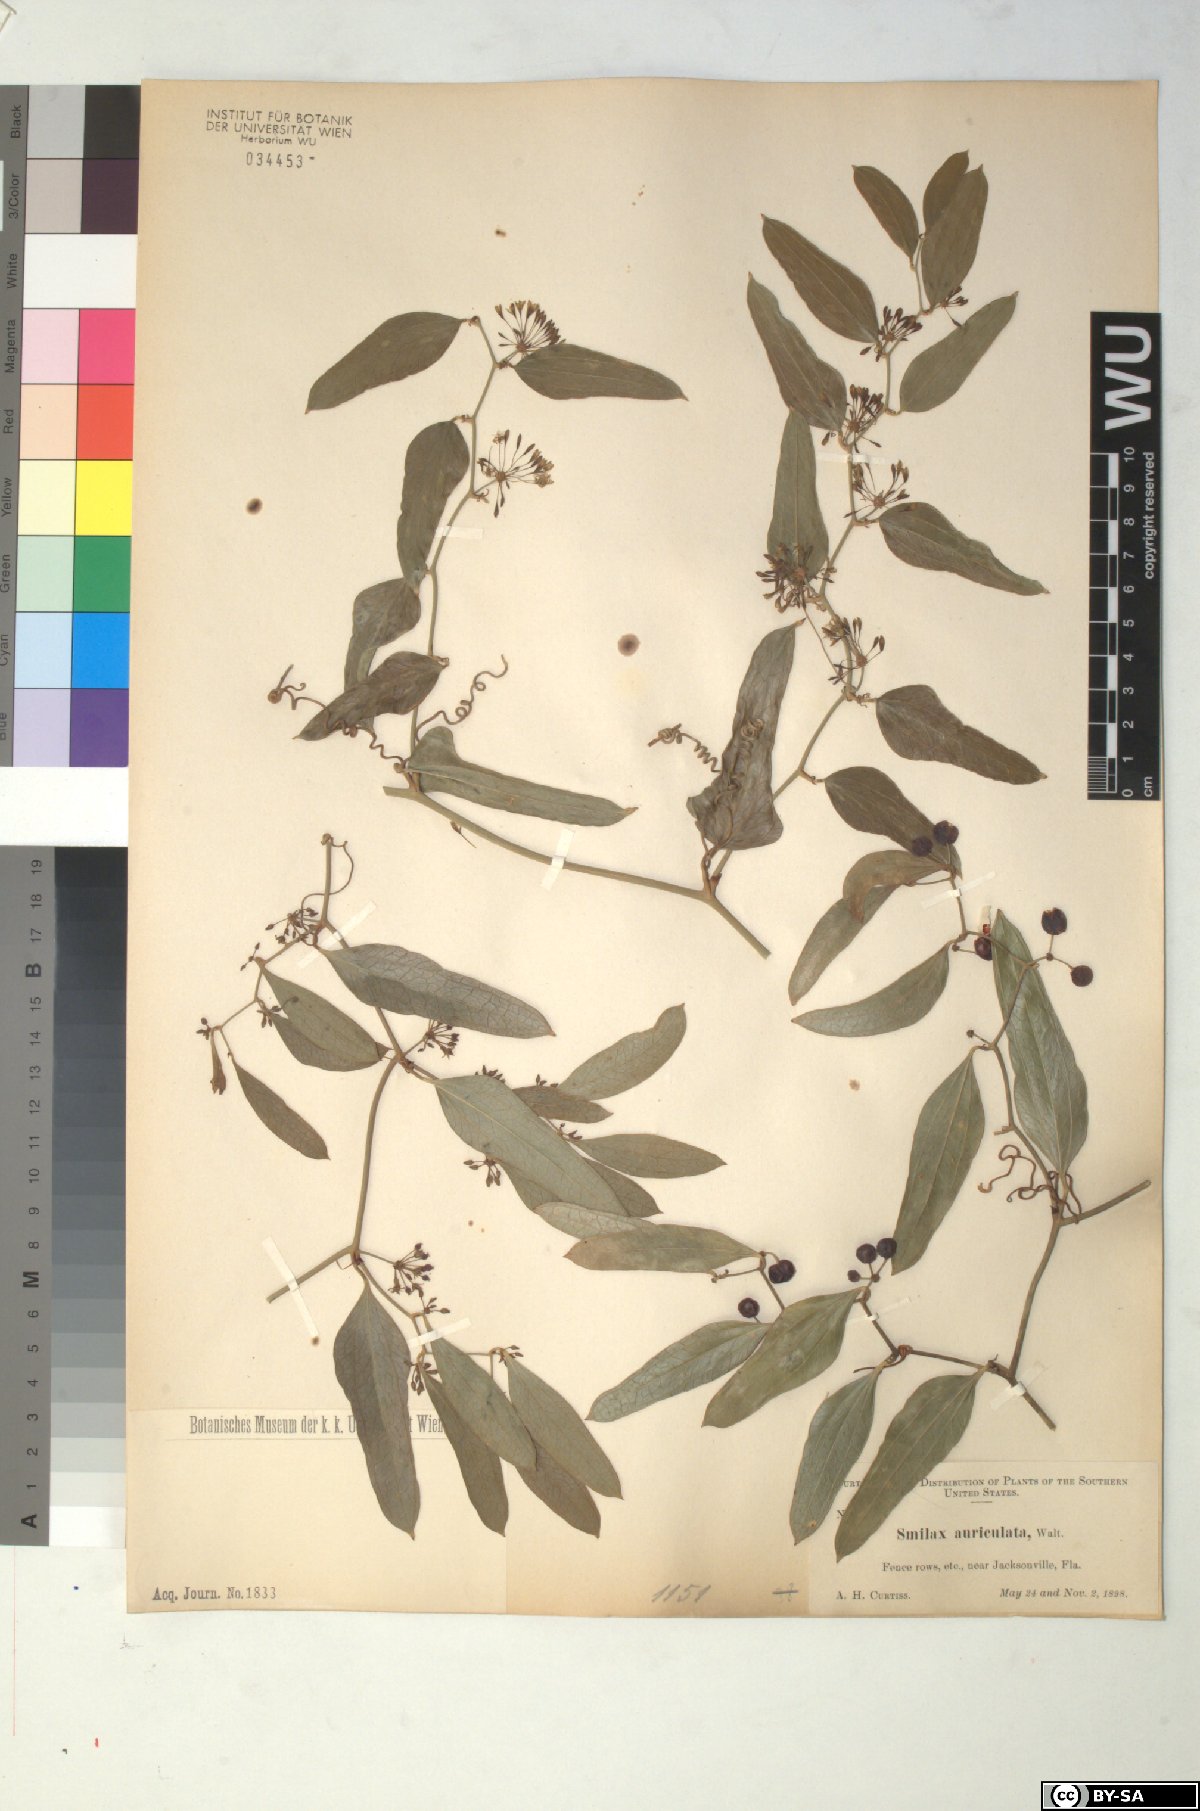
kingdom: Plantae
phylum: Tracheophyta
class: Liliopsida
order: Liliales
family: Smilacaceae
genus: Smilax
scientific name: Smilax auriculata
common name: Wild bamboo
